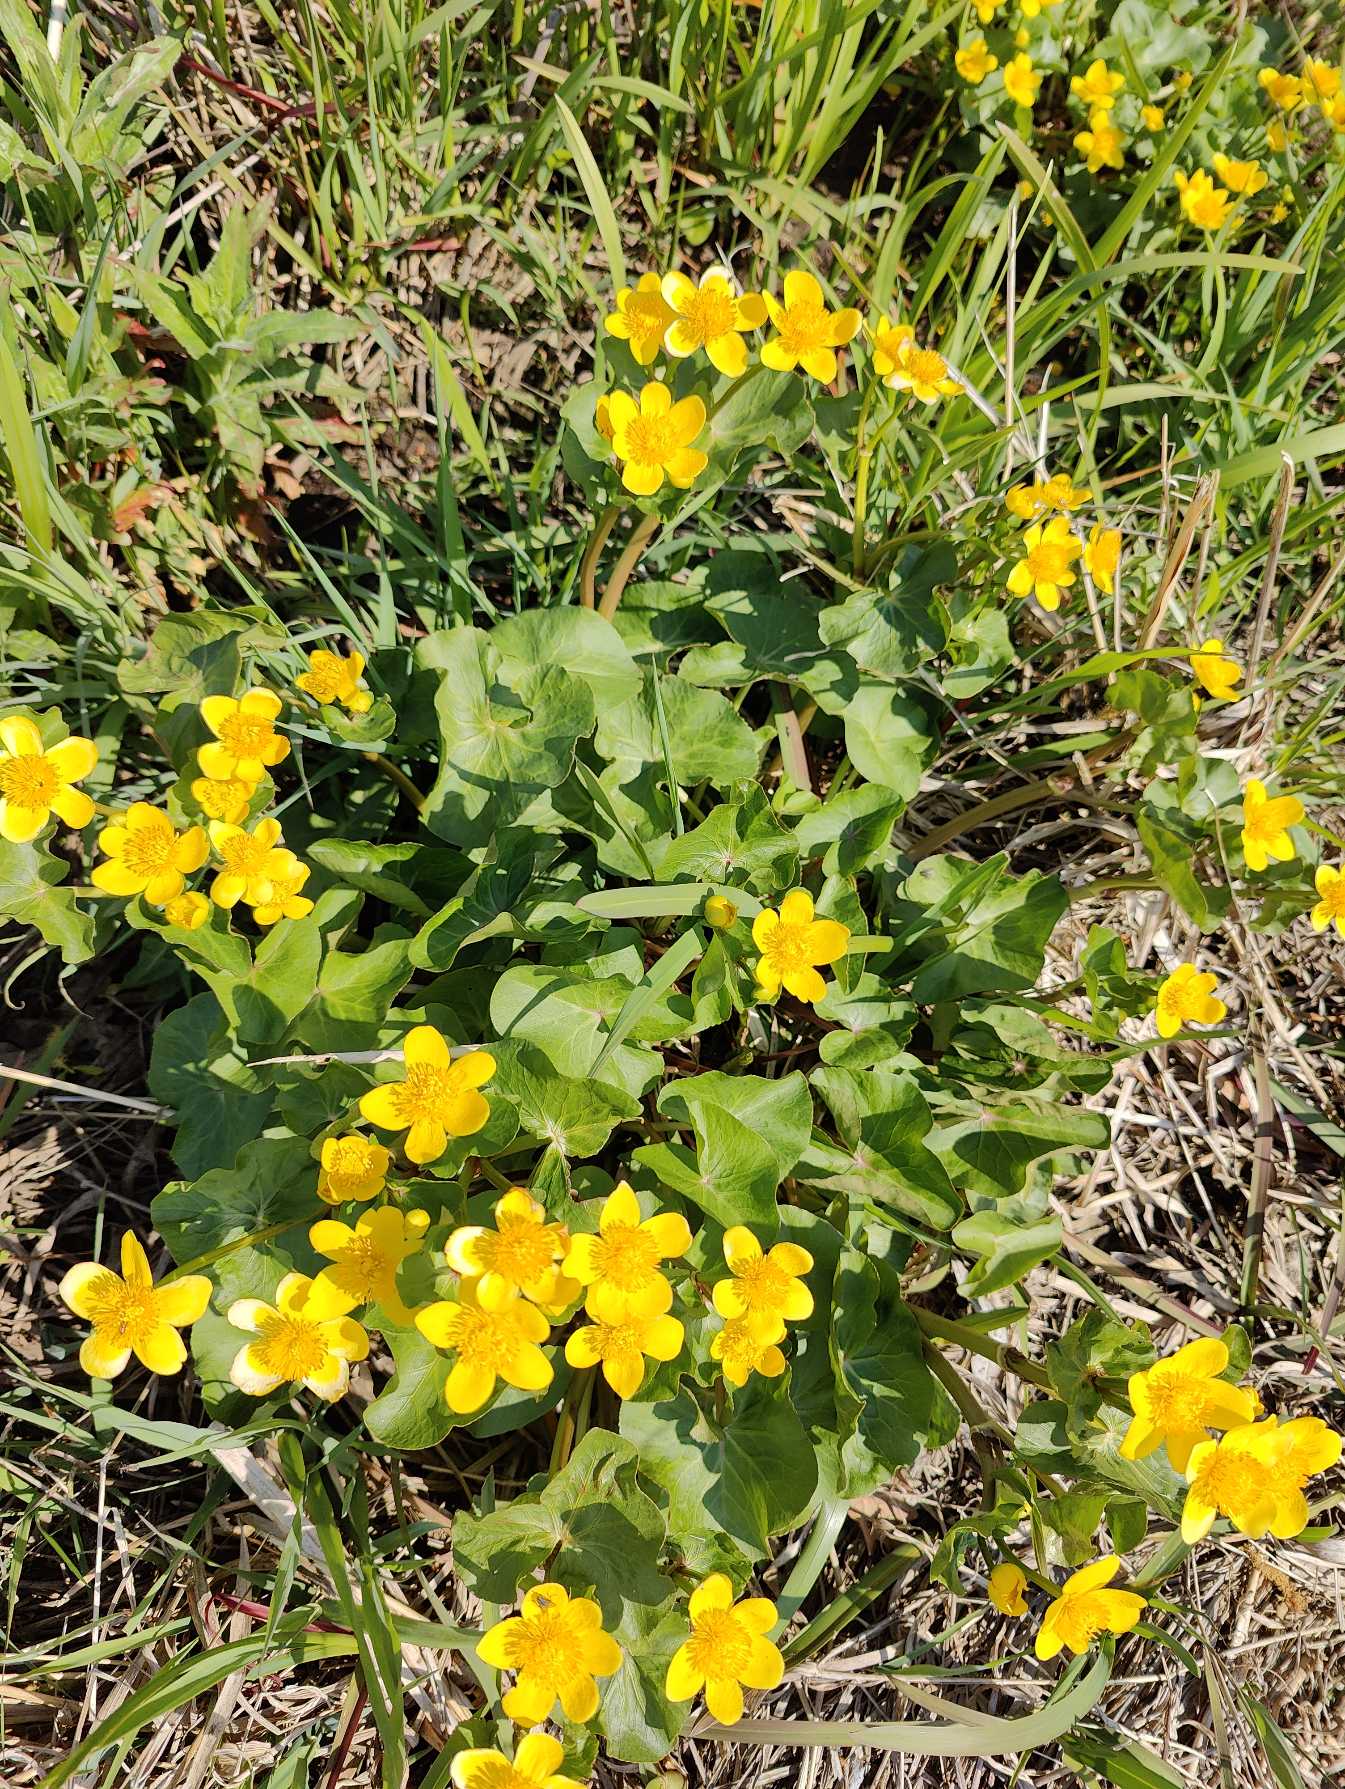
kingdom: Plantae
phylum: Tracheophyta
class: Magnoliopsida
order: Ranunculales
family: Ranunculaceae
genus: Caltha
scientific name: Caltha palustris
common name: Eng-kabbeleje
